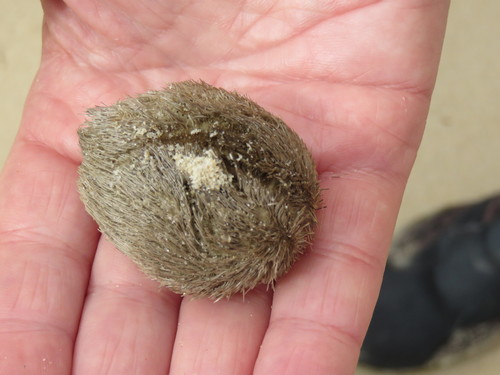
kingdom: Animalia
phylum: Echinodermata
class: Echinoidea
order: Spatangoida
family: Loveniidae
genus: Echinocardium
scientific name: Echinocardium cordatum
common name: Heart-urchin
